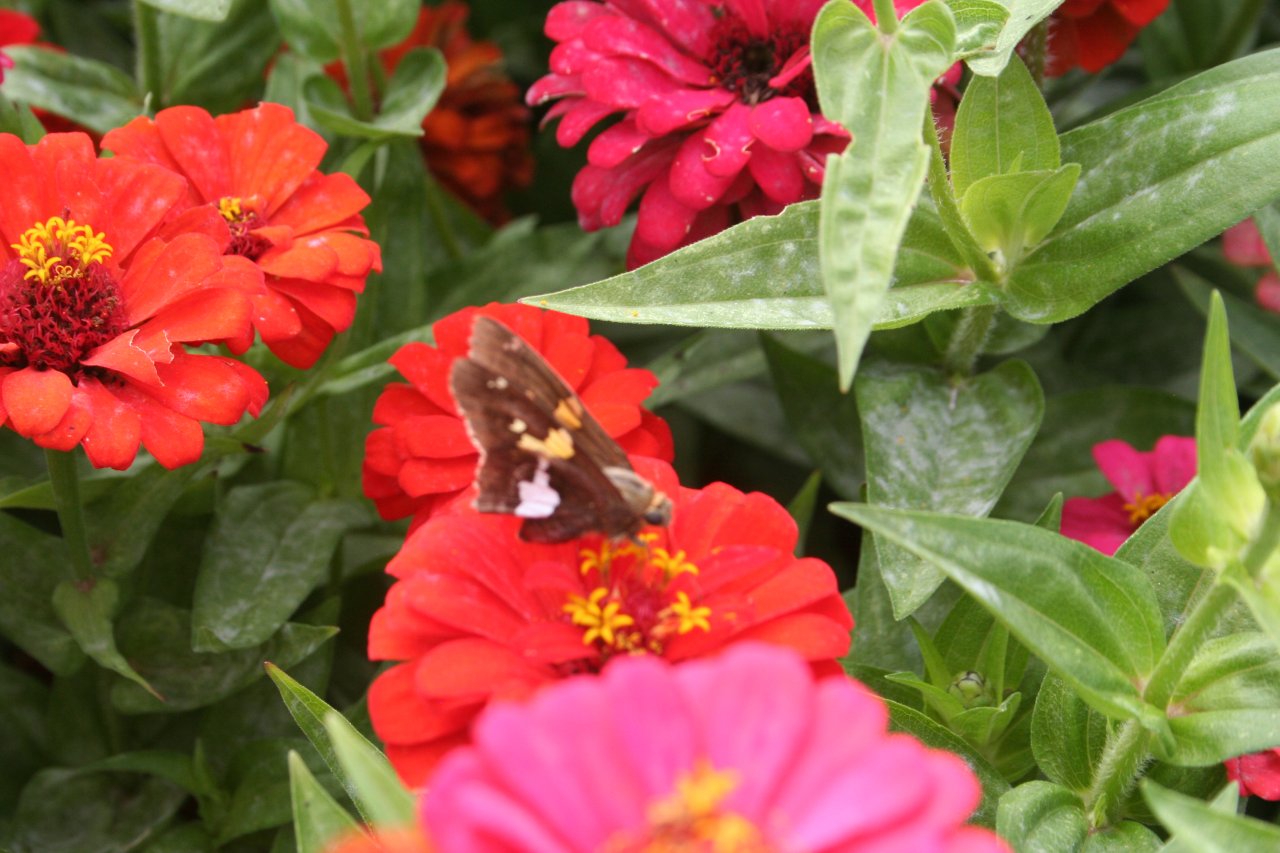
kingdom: Animalia
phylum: Arthropoda
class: Insecta
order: Lepidoptera
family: Hesperiidae
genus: Epargyreus
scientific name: Epargyreus clarus
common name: Silver-spotted Skipper
